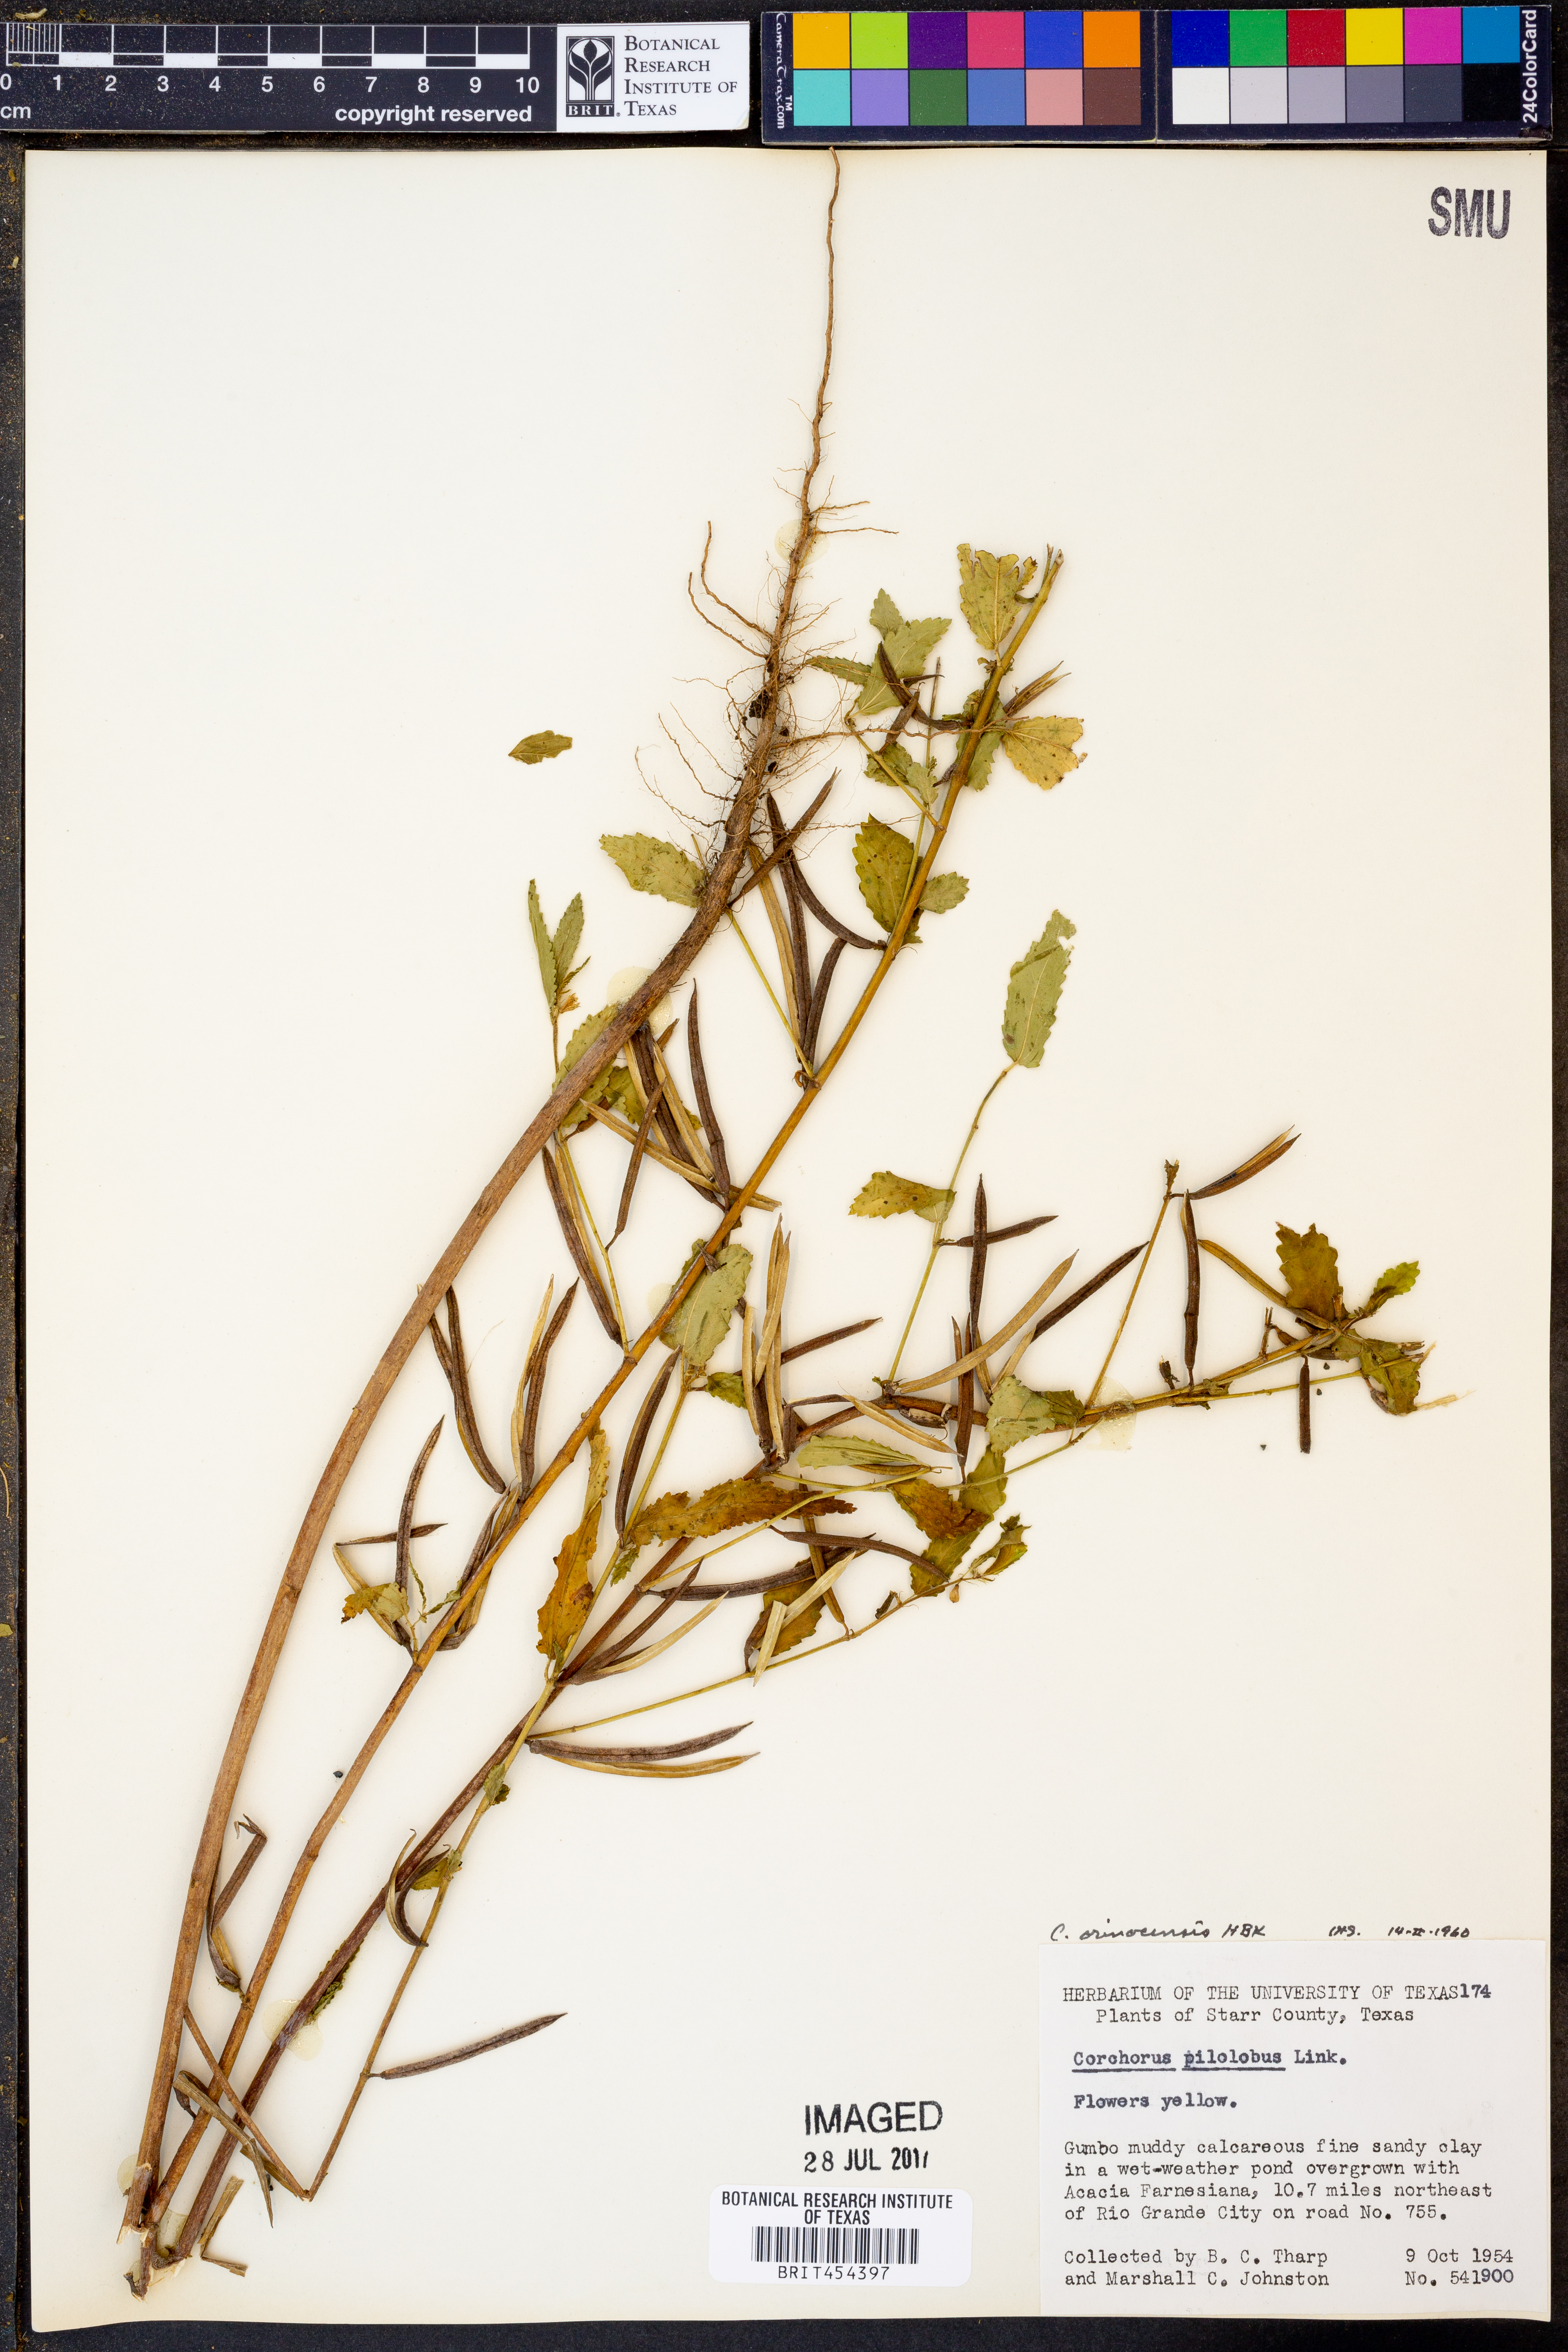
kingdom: Plantae
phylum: Tracheophyta
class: Magnoliopsida
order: Malvales
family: Malvaceae
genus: Corchorus
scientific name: Corchorus hirtus
